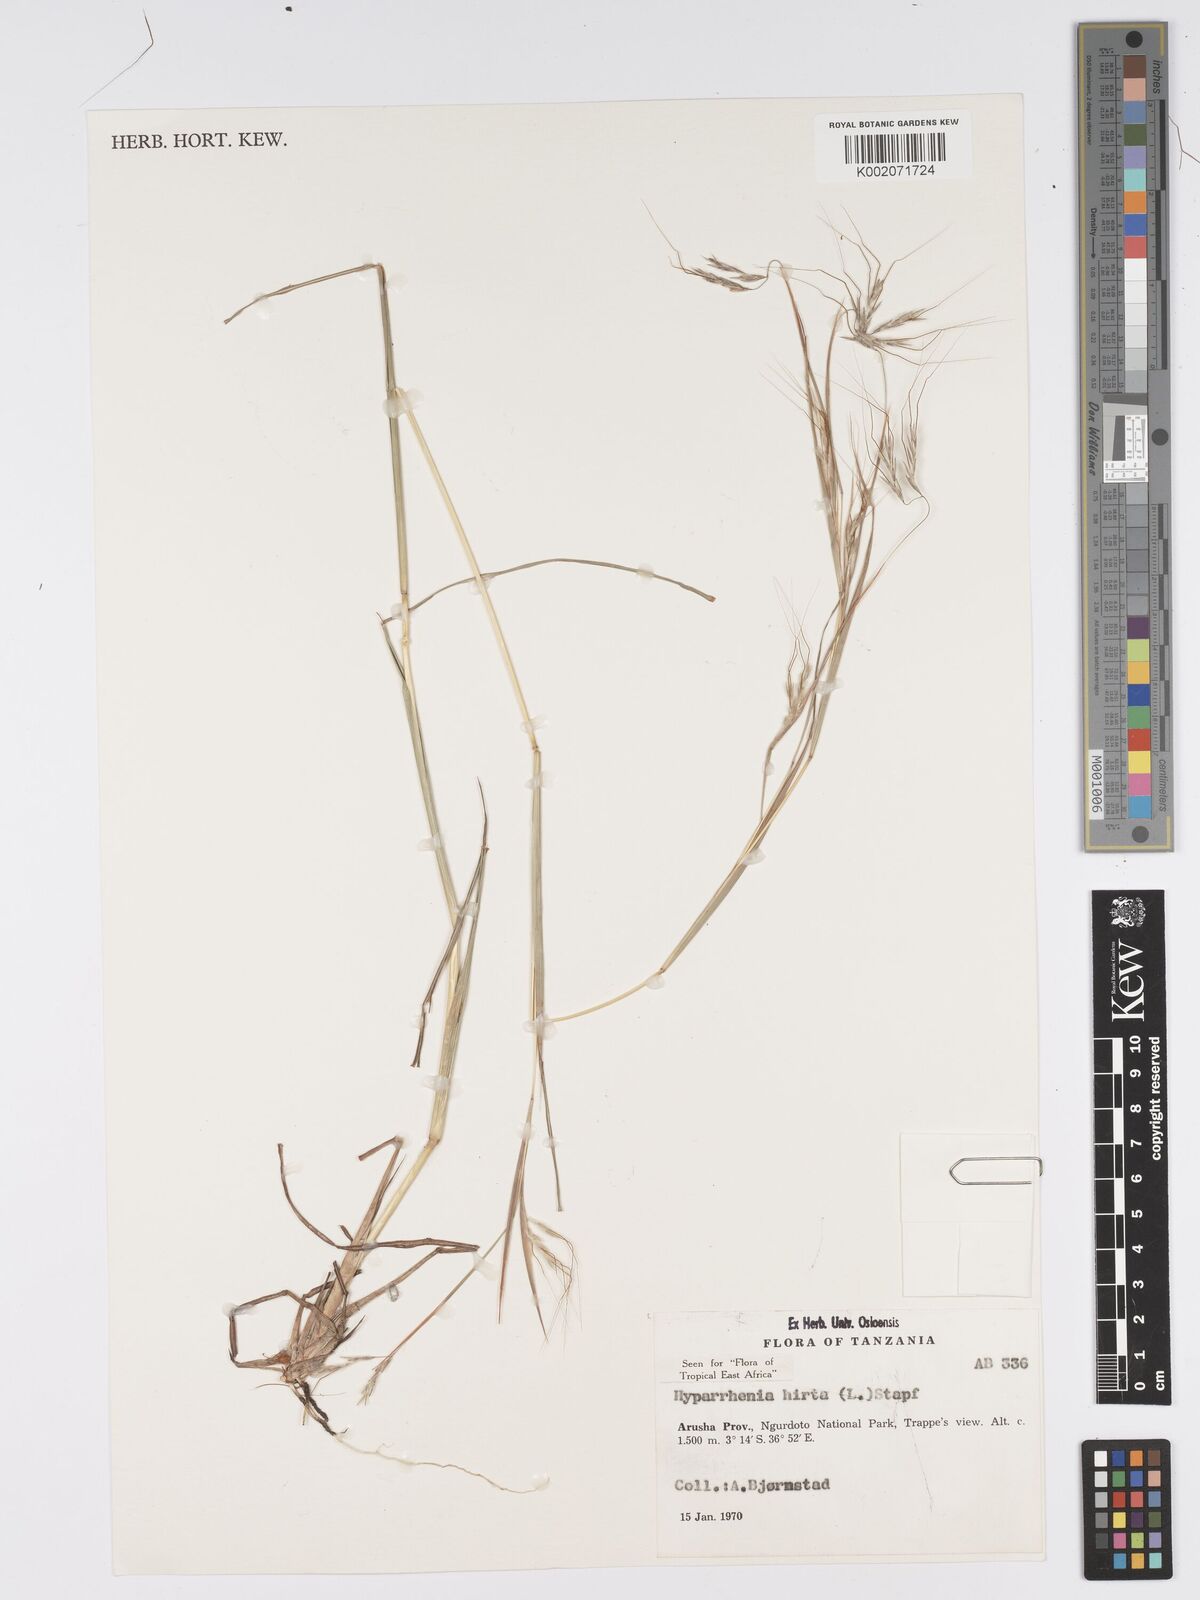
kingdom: Plantae
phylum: Tracheophyta
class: Liliopsida
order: Poales
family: Poaceae
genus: Hyparrhenia
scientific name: Hyparrhenia hirta
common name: Thatching grass
